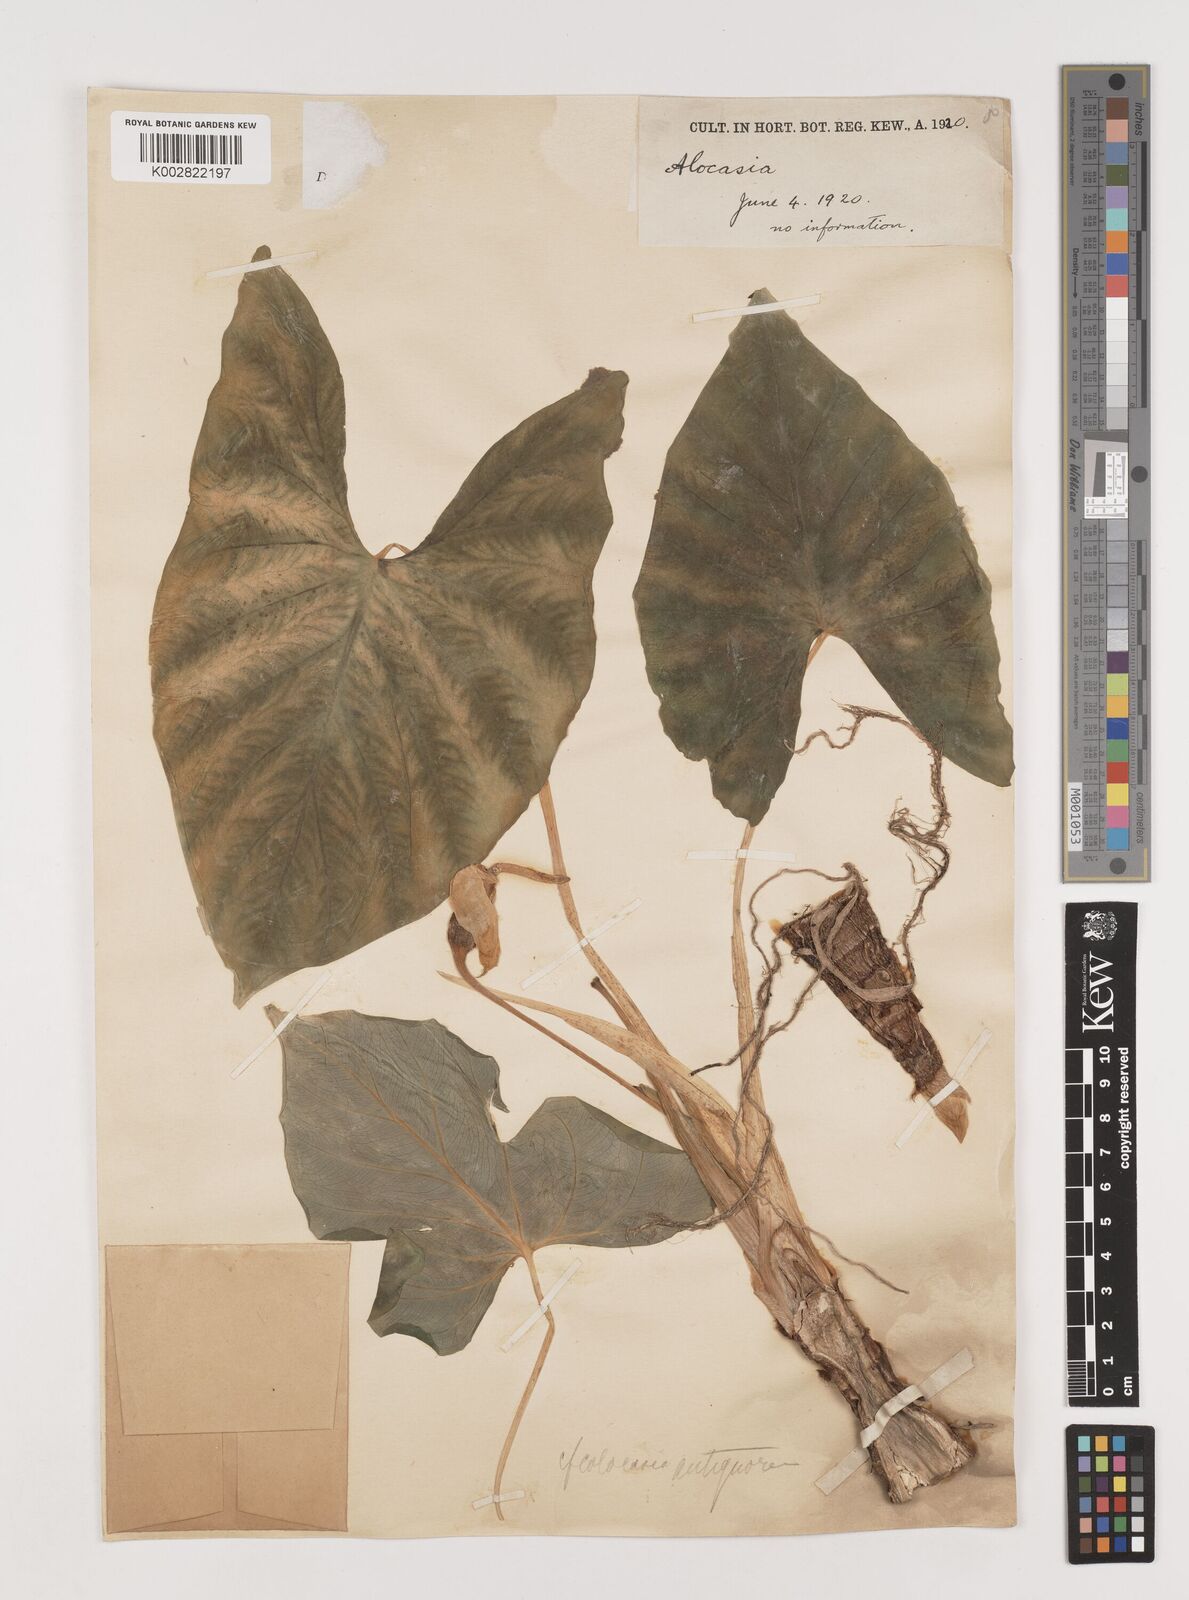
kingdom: Plantae
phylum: Tracheophyta
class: Liliopsida
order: Alismatales
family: Araceae
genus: Alocasia
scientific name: Alocasia macrorrhizos
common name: Giant taro
